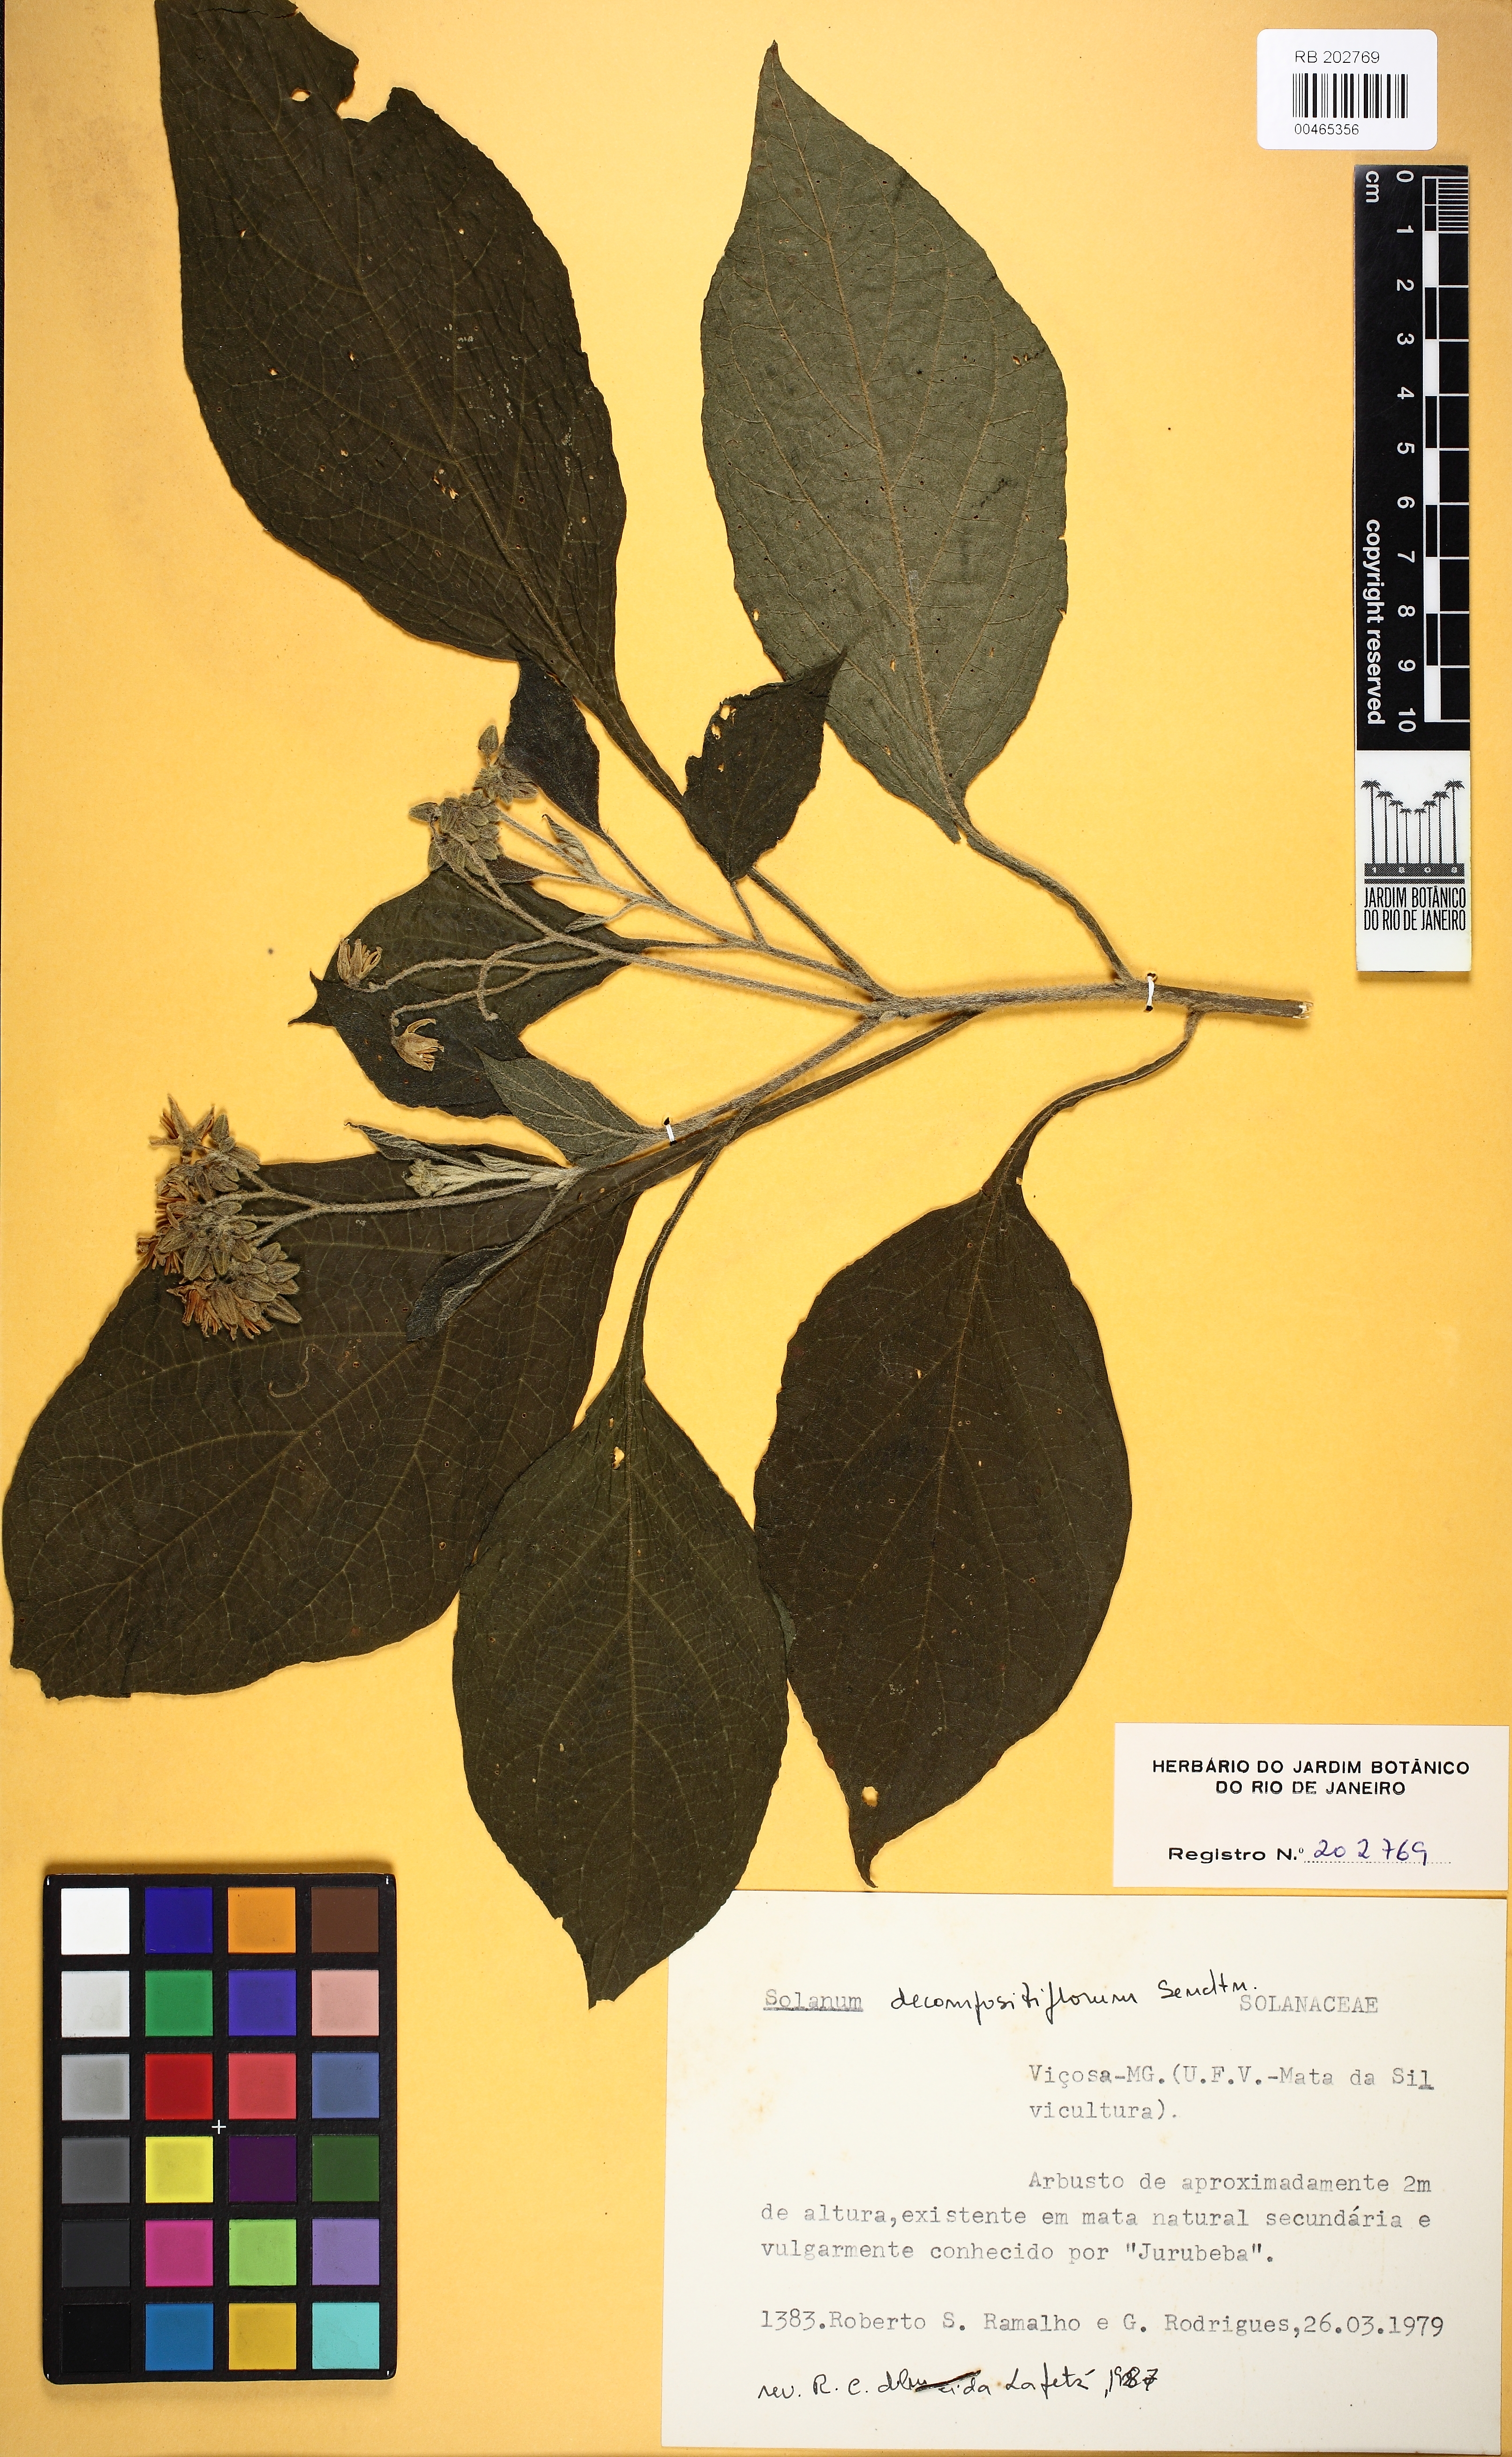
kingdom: Plantae
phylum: Tracheophyta
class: Magnoliopsida
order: Solanales
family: Solanaceae
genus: Solanum
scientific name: Solanum decompositiflorum
